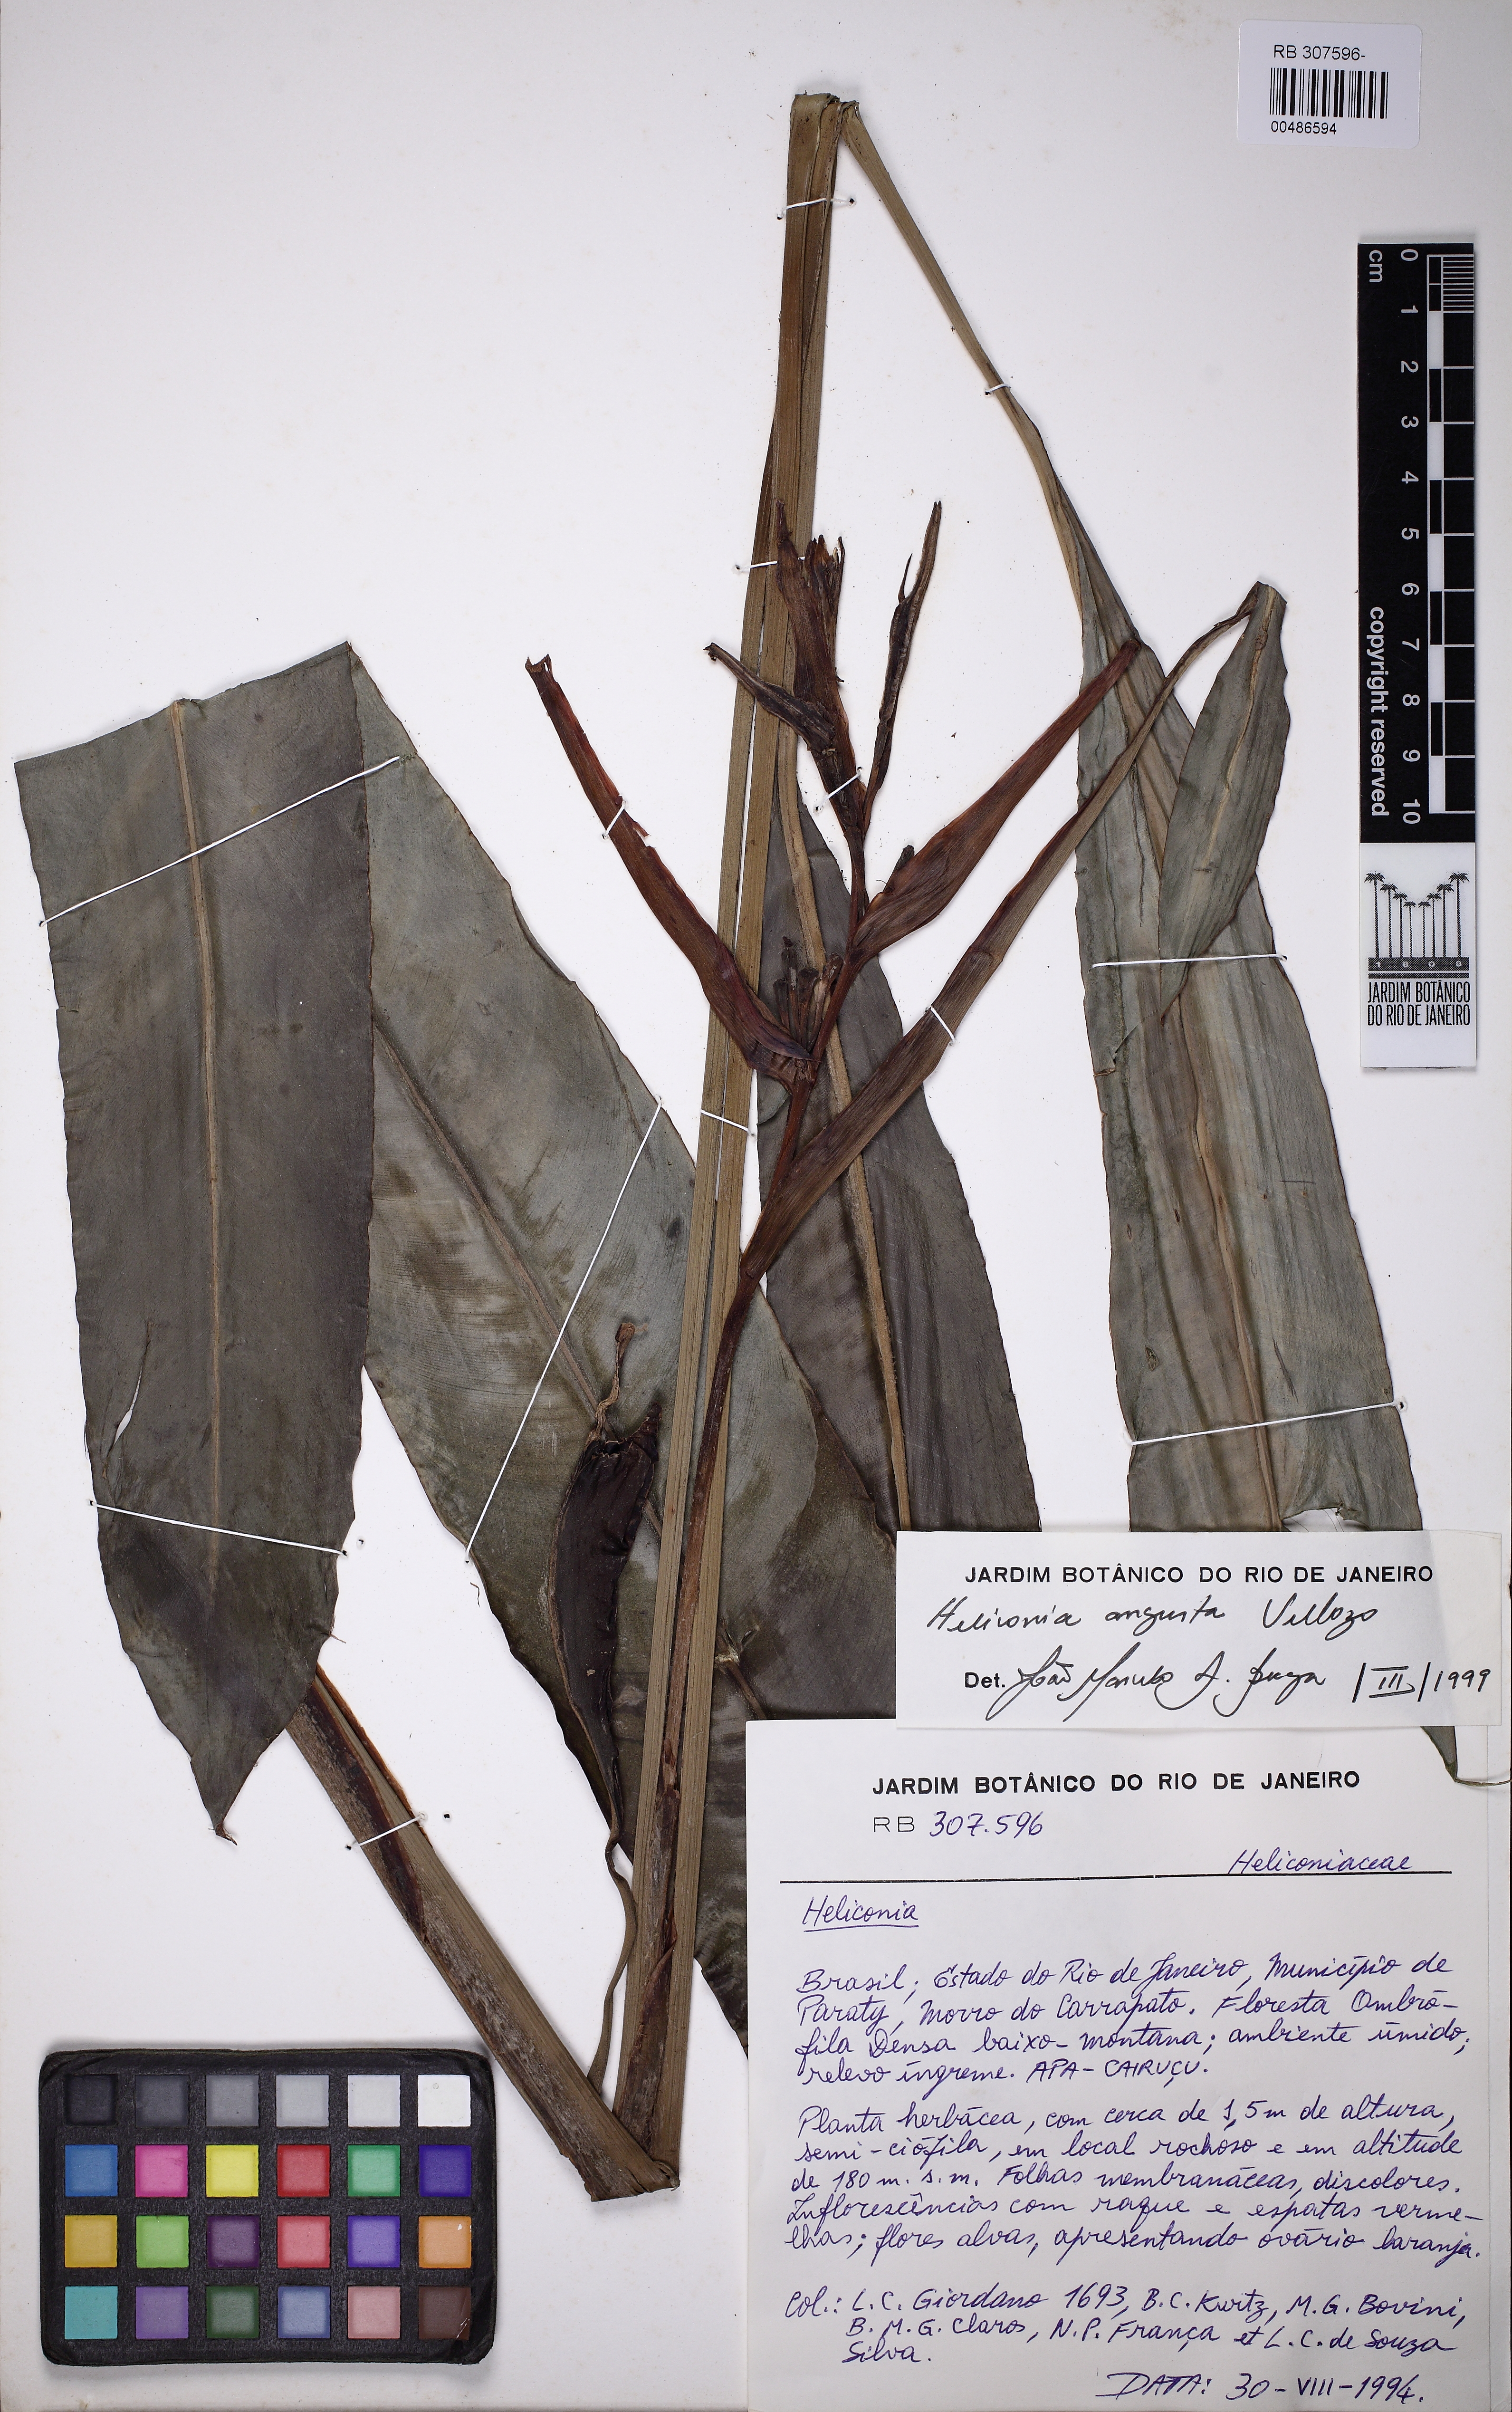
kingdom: Plantae
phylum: Tracheophyta
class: Liliopsida
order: Zingiberales
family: Heliconiaceae
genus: Heliconia
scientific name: Heliconia angusta
